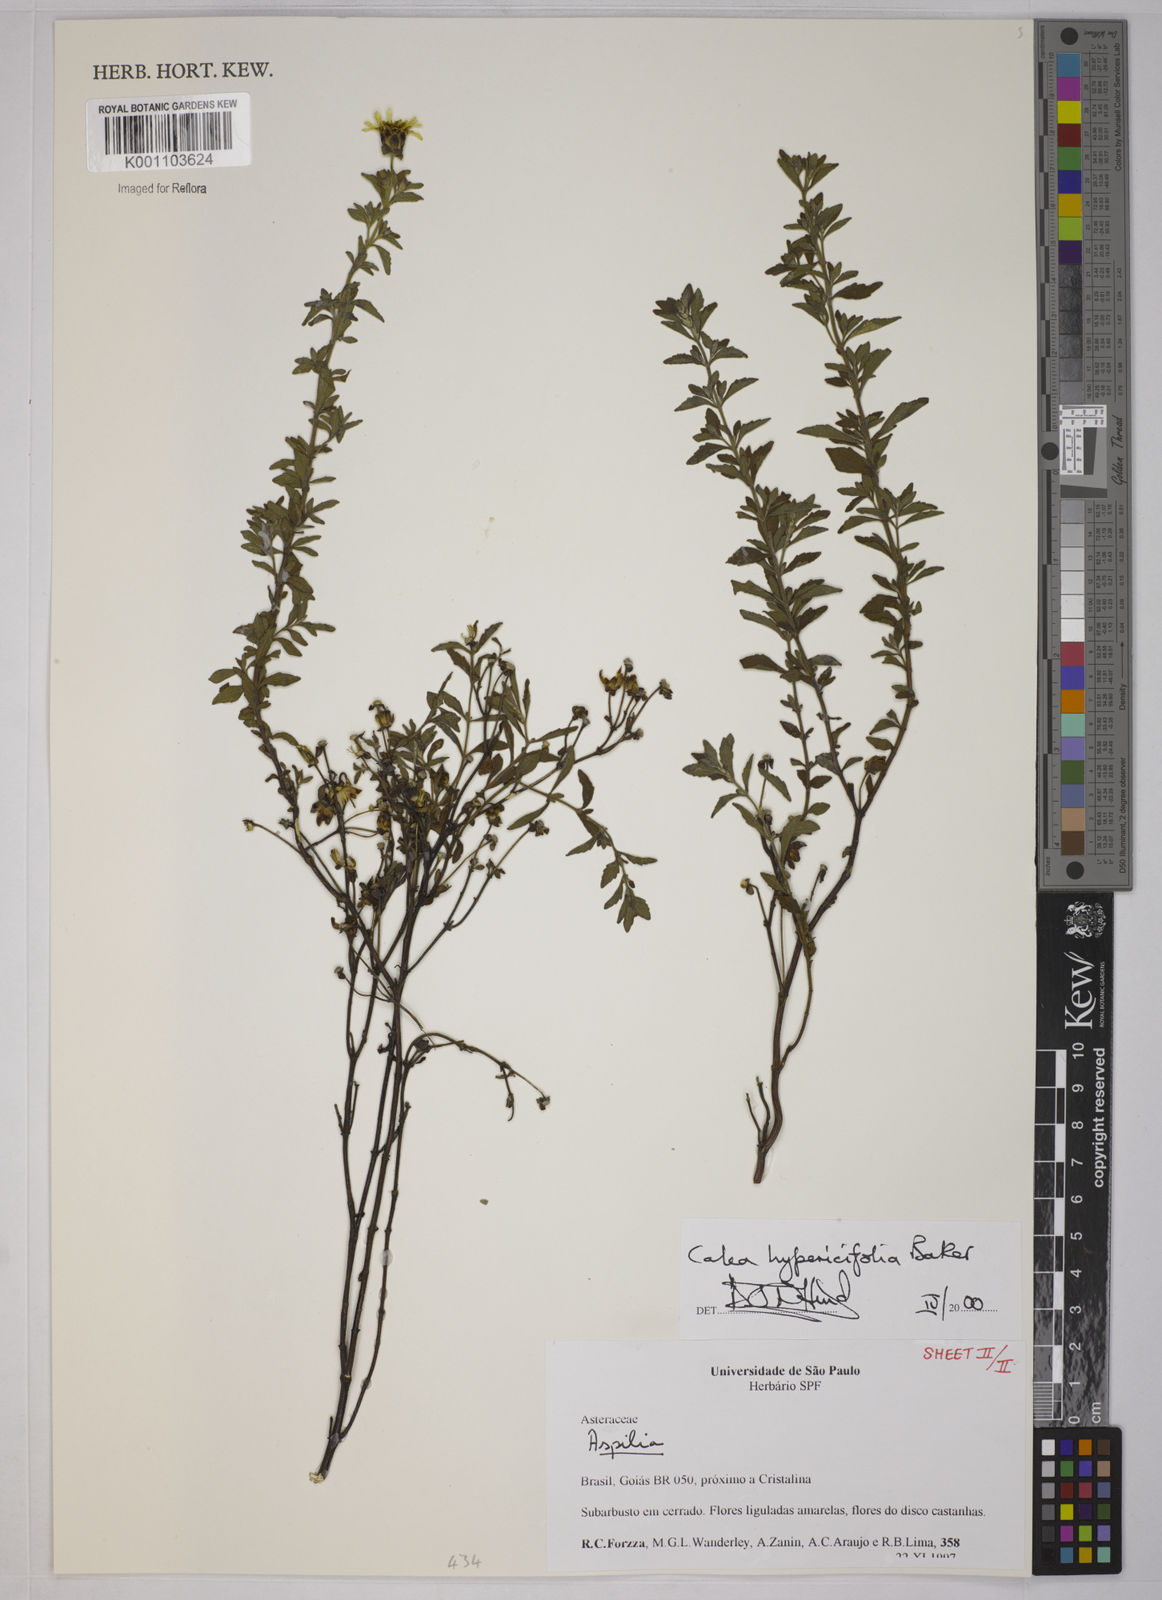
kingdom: Plantae
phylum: Tracheophyta
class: Magnoliopsida
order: Asterales
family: Asteraceae
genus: Calea
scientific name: Calea hypericifolia
